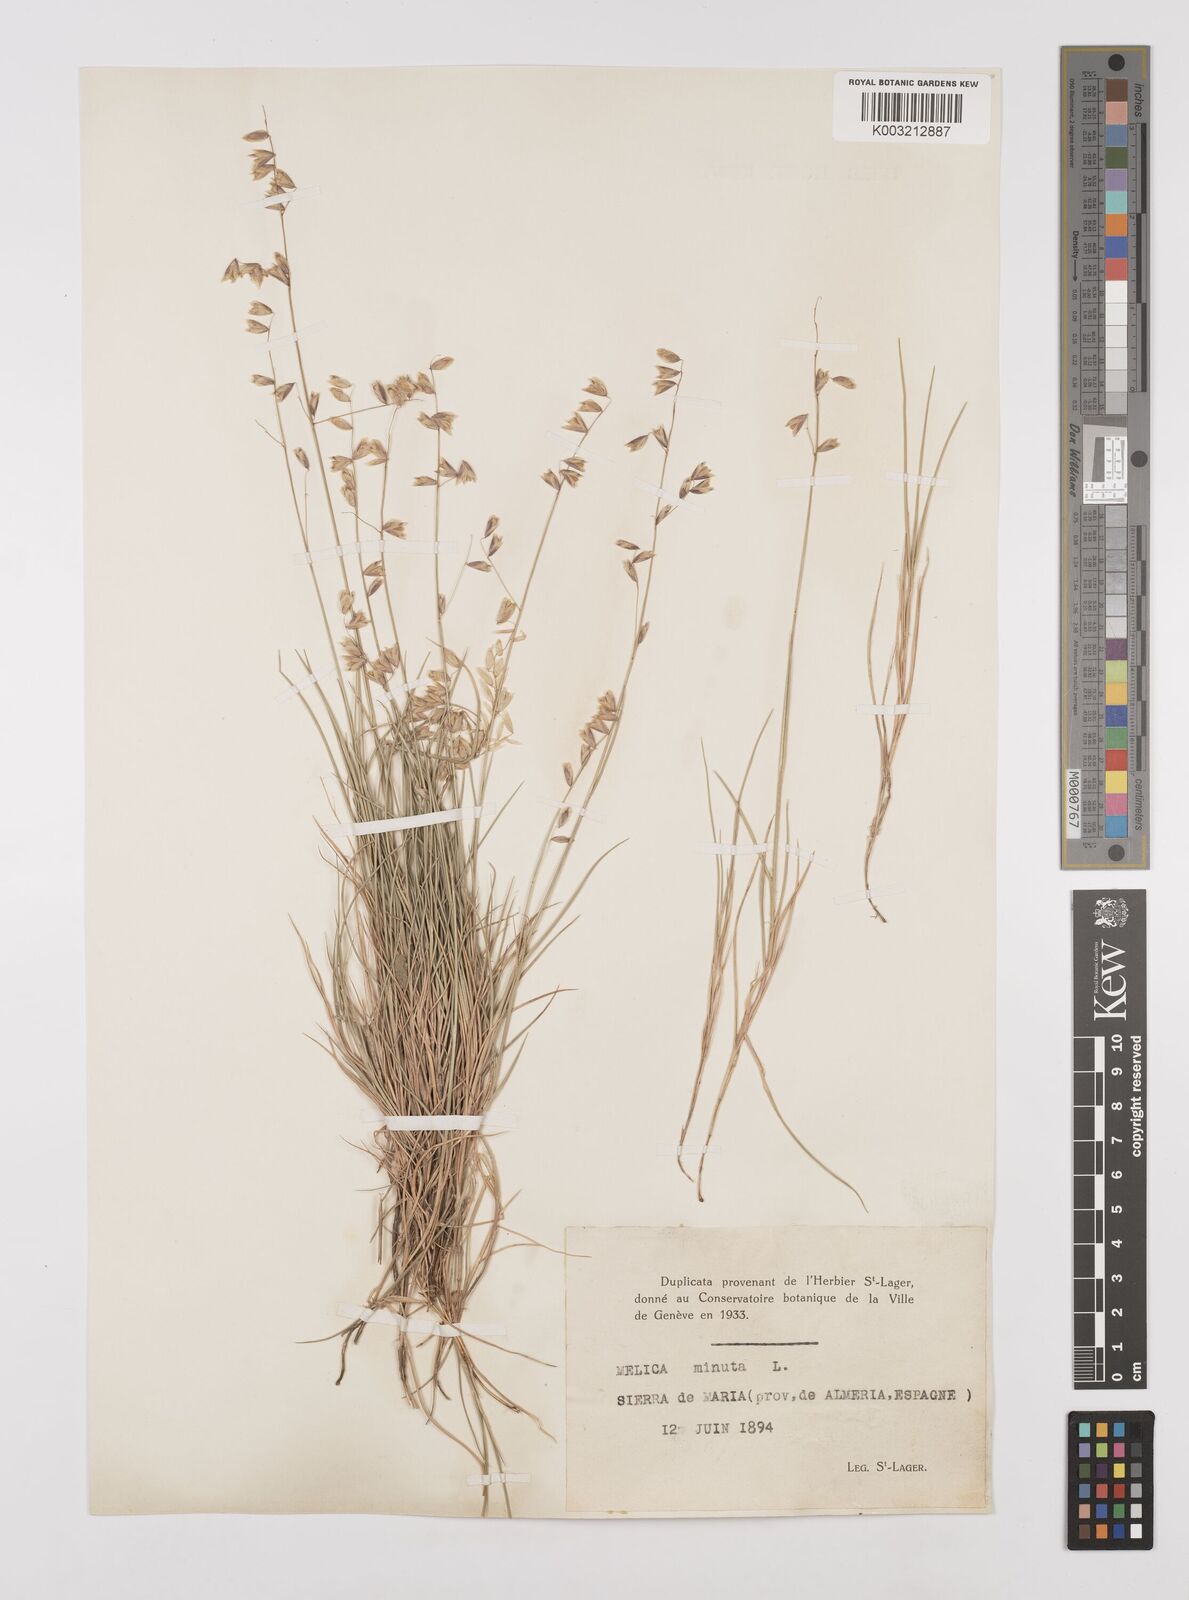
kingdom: Plantae
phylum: Tracheophyta
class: Liliopsida
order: Poales
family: Poaceae
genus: Melica
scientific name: Melica minuta
